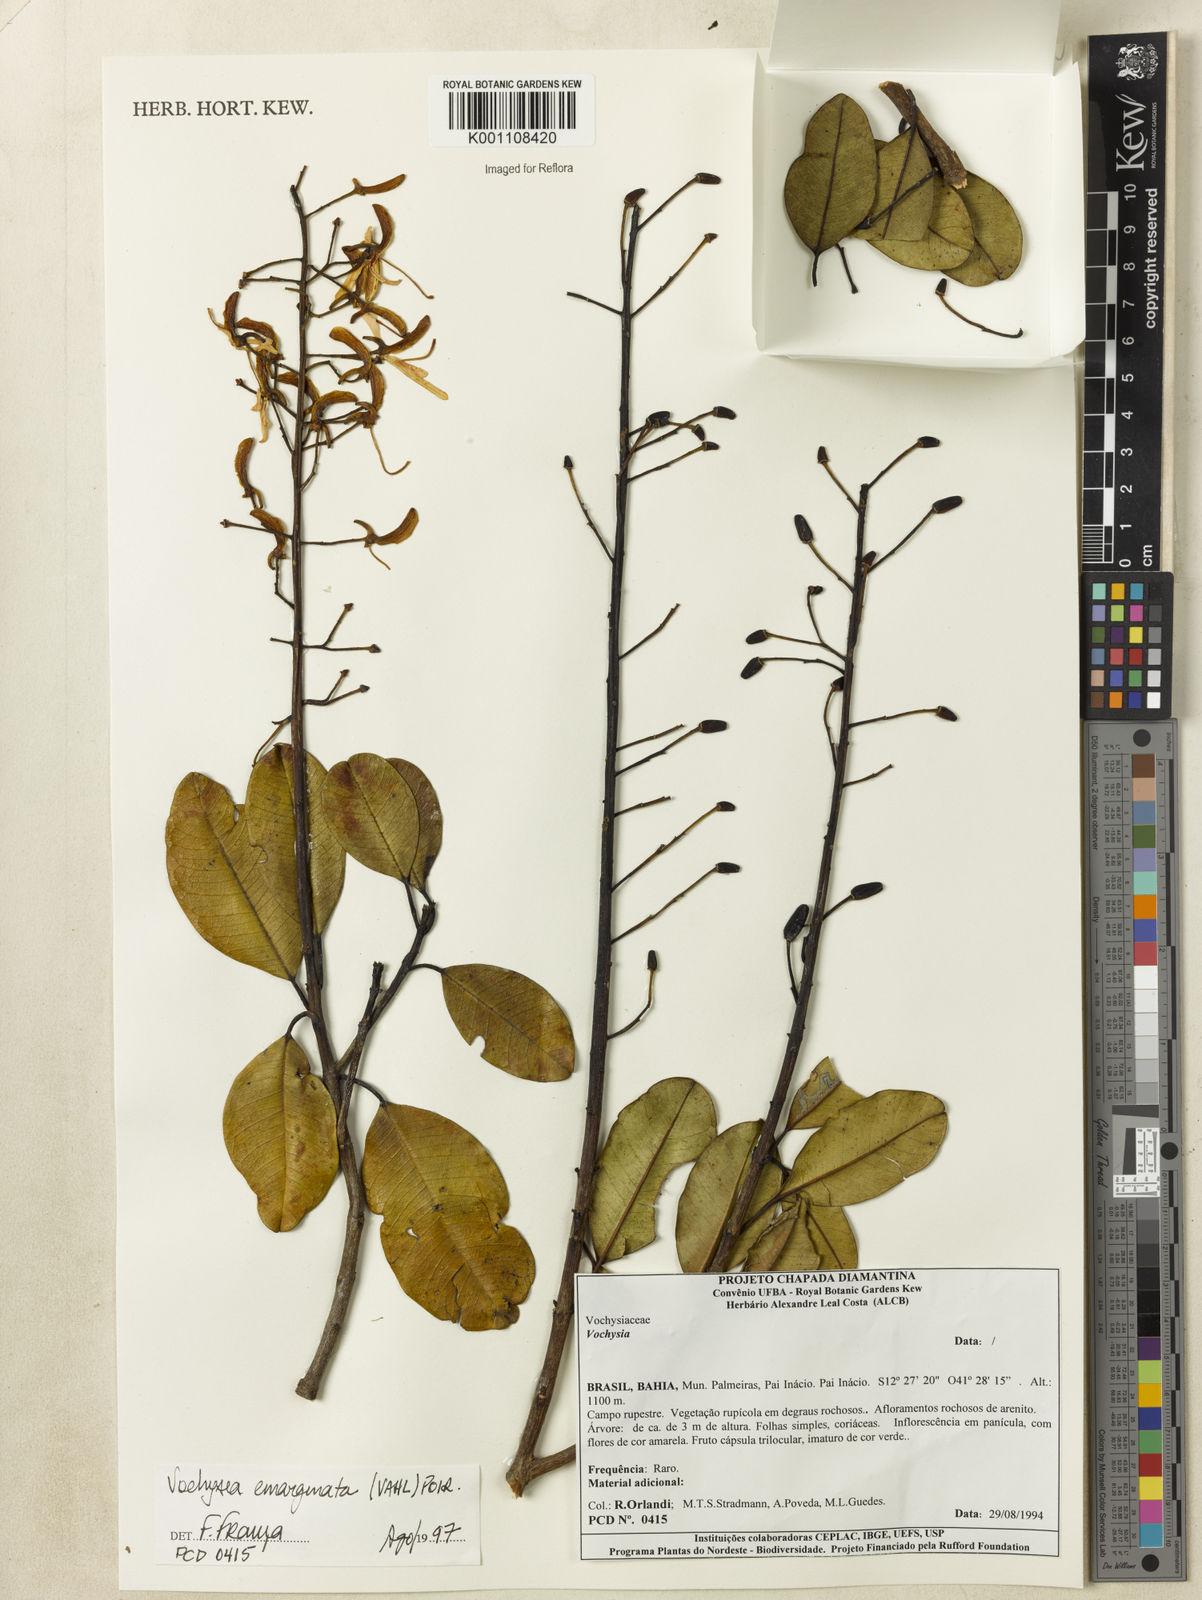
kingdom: Plantae
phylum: Tracheophyta
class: Magnoliopsida
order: Myrtales
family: Vochysiaceae
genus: Vochysia
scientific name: Vochysia
